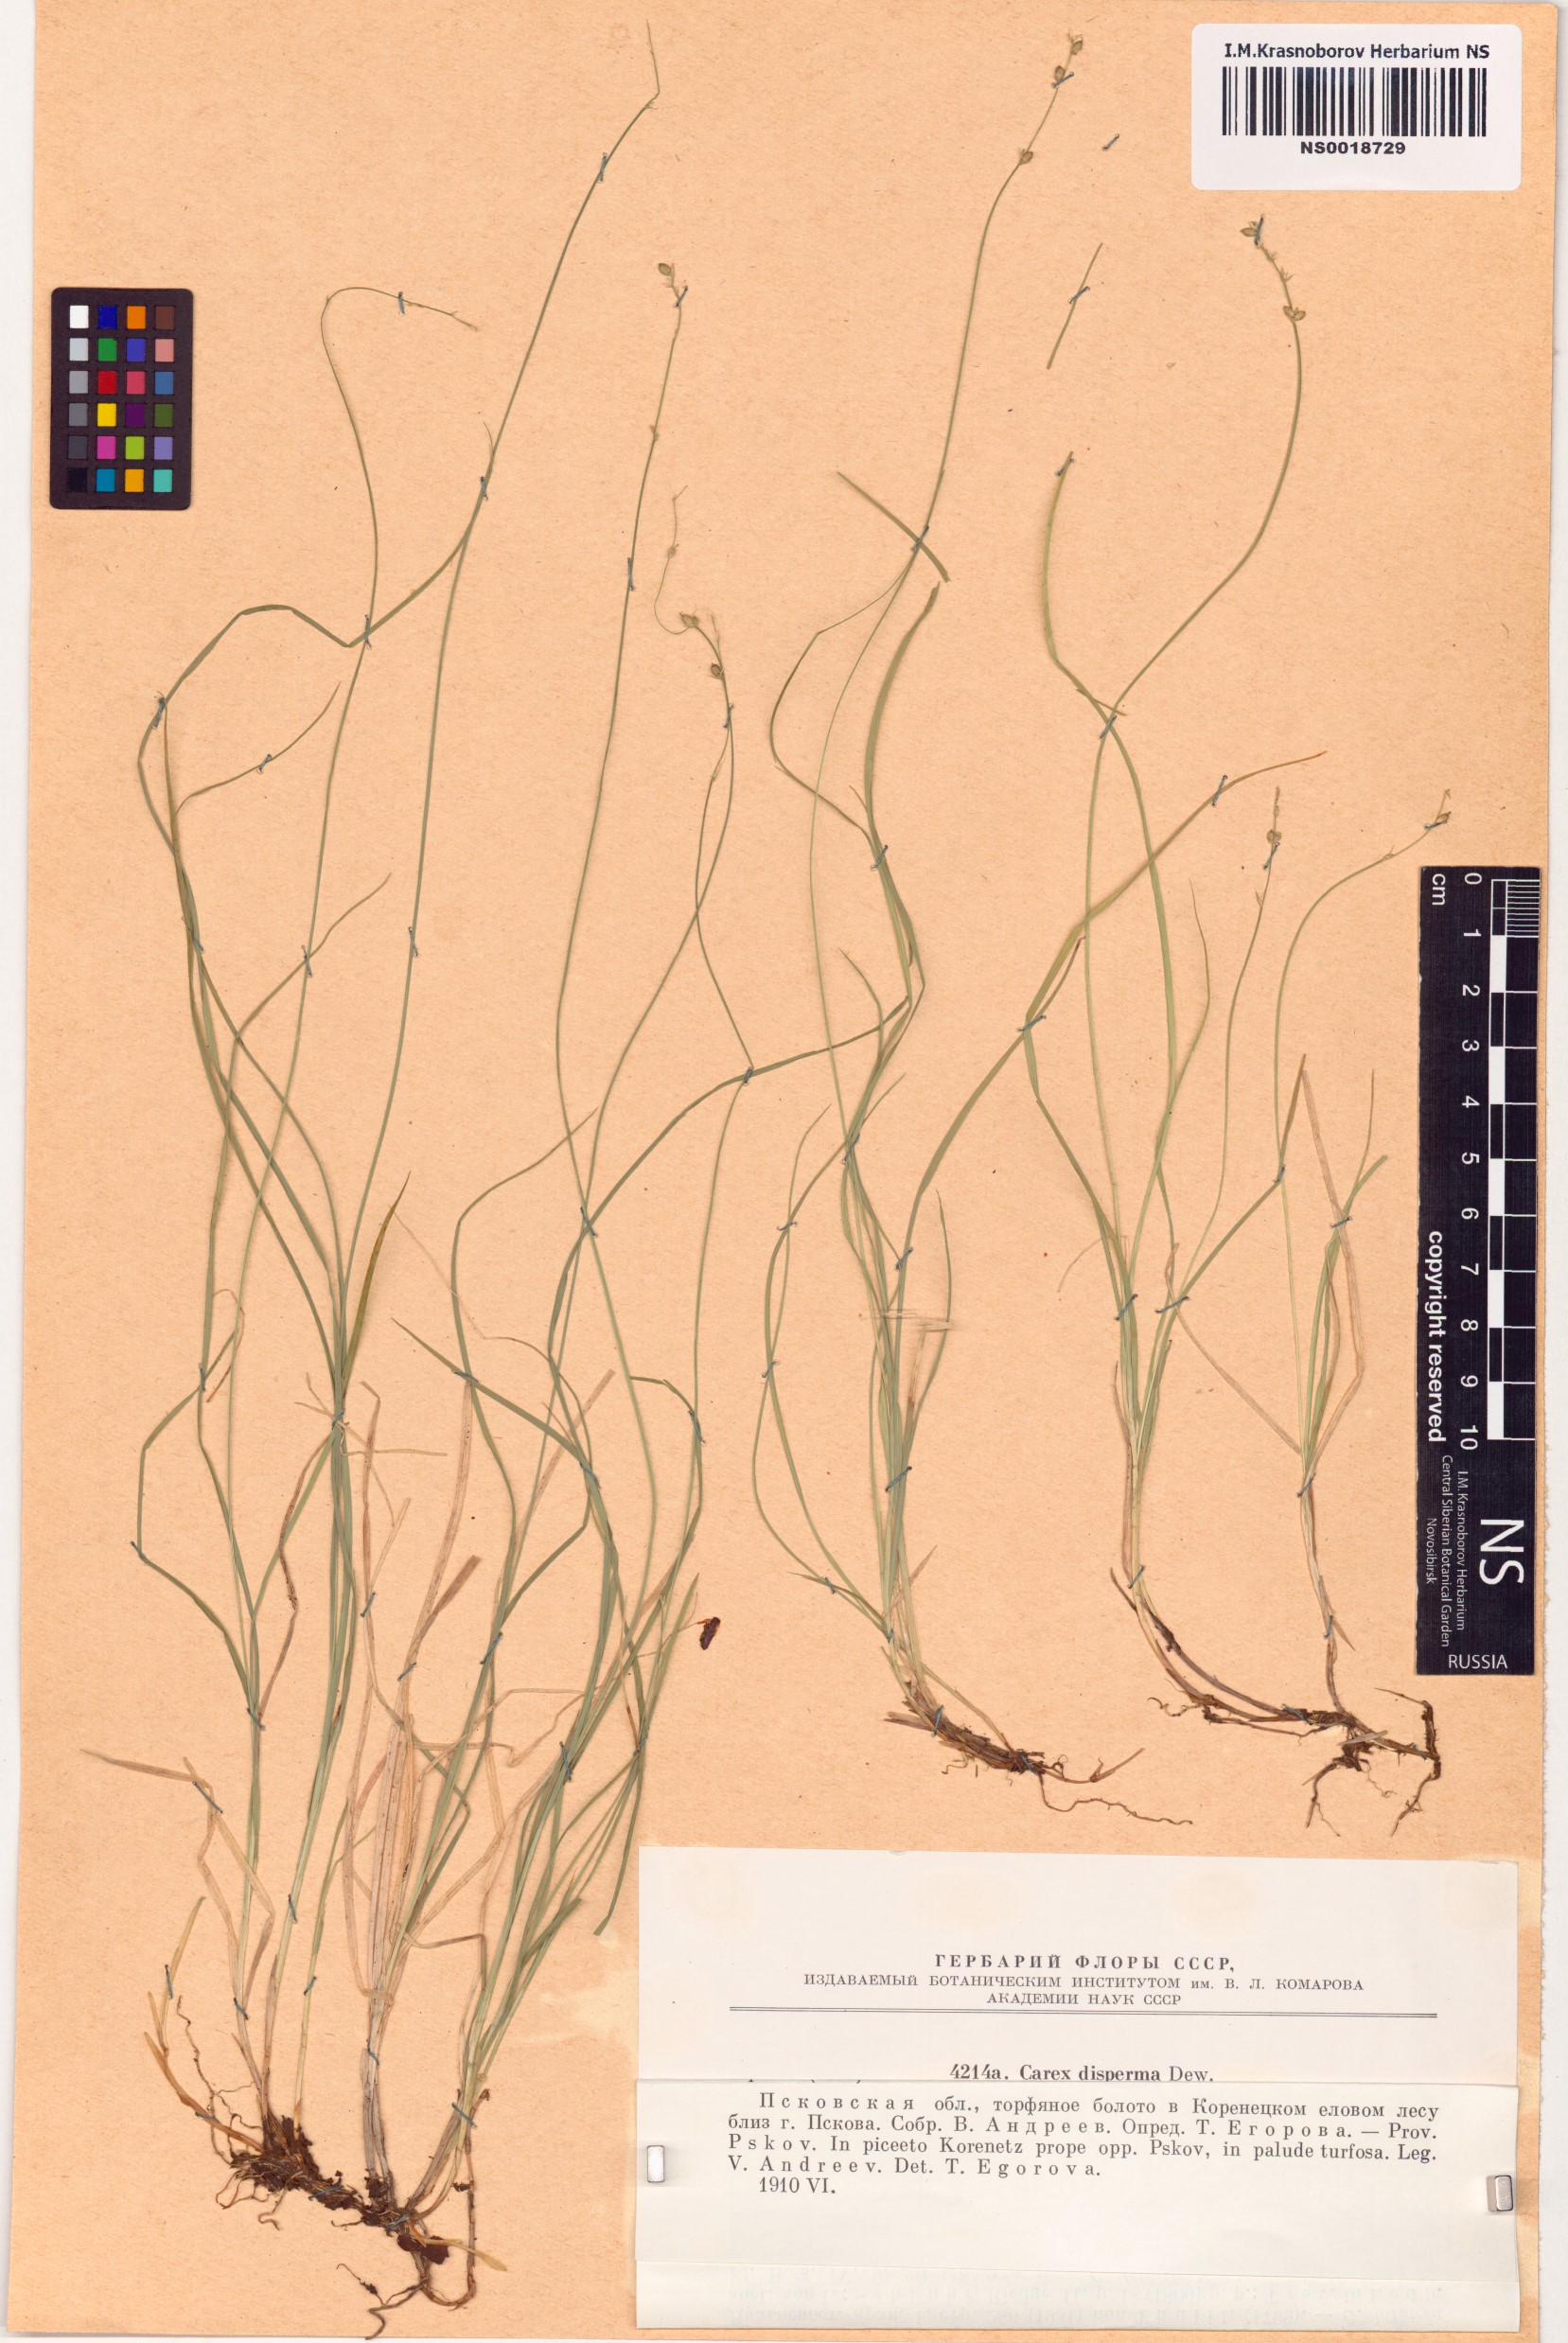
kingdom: Plantae
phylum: Tracheophyta
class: Liliopsida
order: Poales
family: Cyperaceae
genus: Carex
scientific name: Carex disperma
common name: Short-leaved sedge
